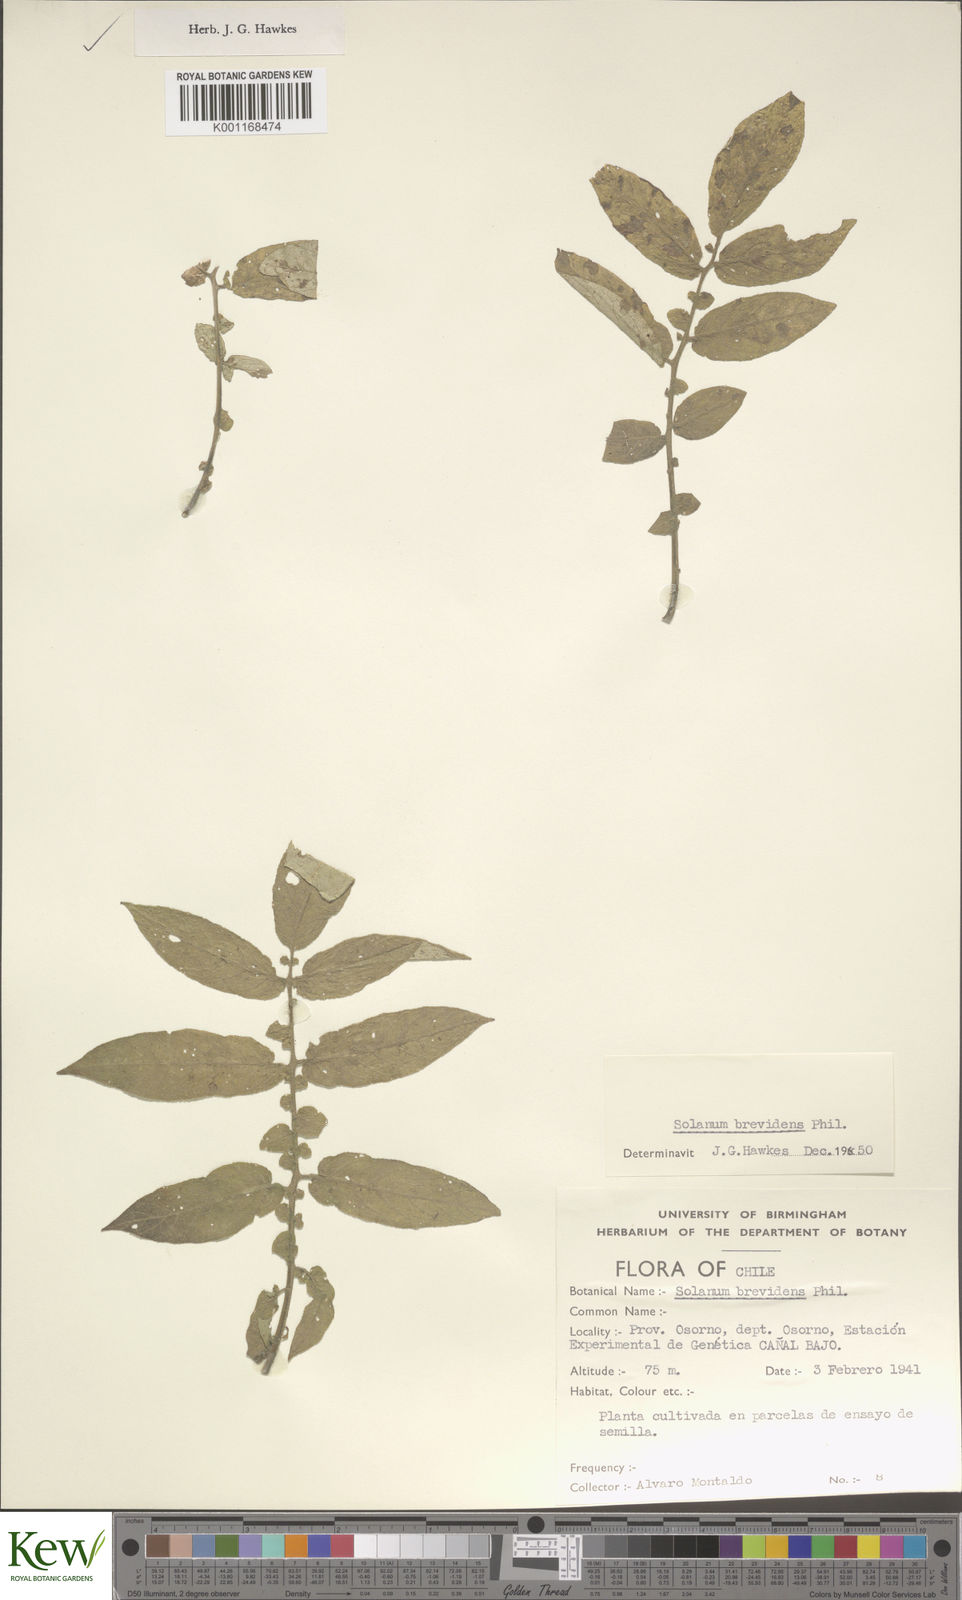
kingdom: Plantae
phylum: Tracheophyta
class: Magnoliopsida
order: Solanales
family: Solanaceae
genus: Solanum
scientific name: Solanum palustre
